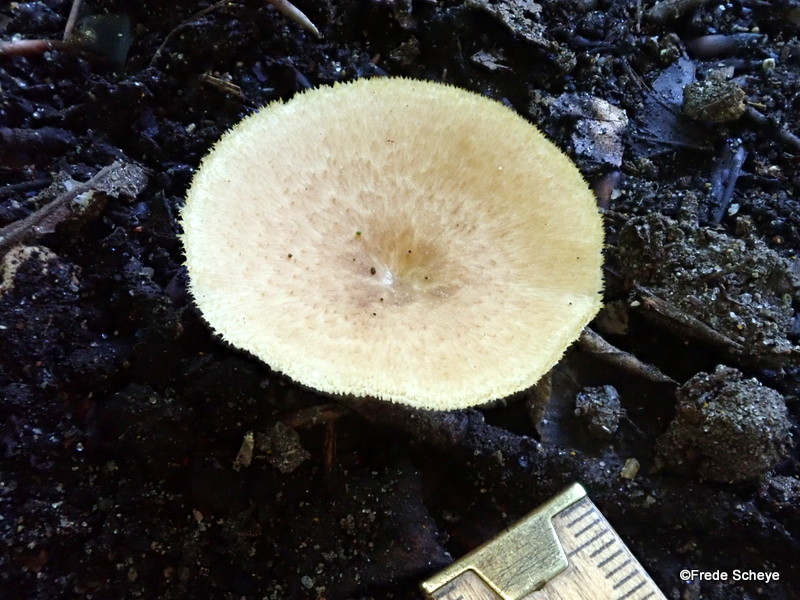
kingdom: Fungi
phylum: Basidiomycota
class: Agaricomycetes
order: Polyporales
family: Polyporaceae
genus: Polyporus
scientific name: Polyporus tuberaster
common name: knoldet stilkporesvamp
